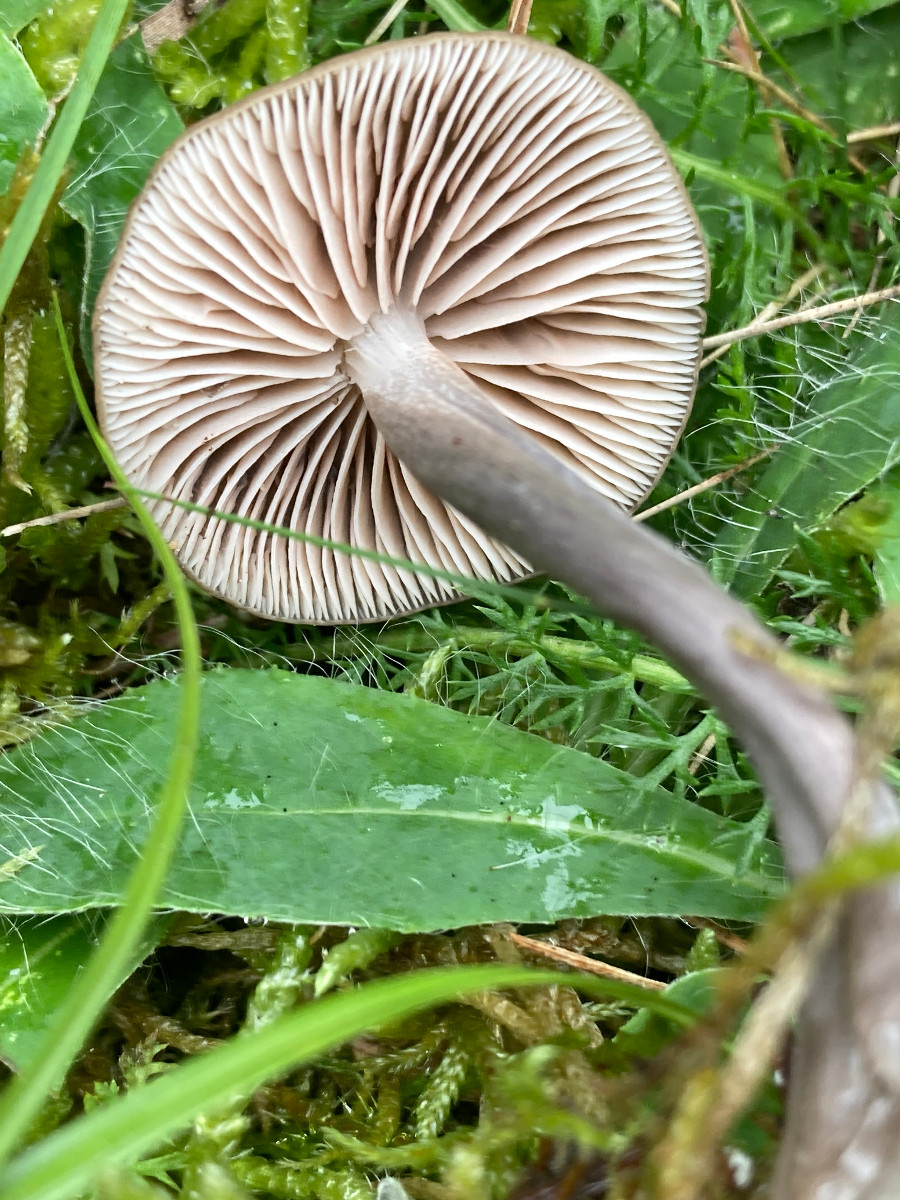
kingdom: Fungi
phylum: Basidiomycota
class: Agaricomycetes
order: Agaricales
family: Entolomataceae
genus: Entoloma
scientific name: Entoloma griseocyaneum
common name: gråblå rødblad
